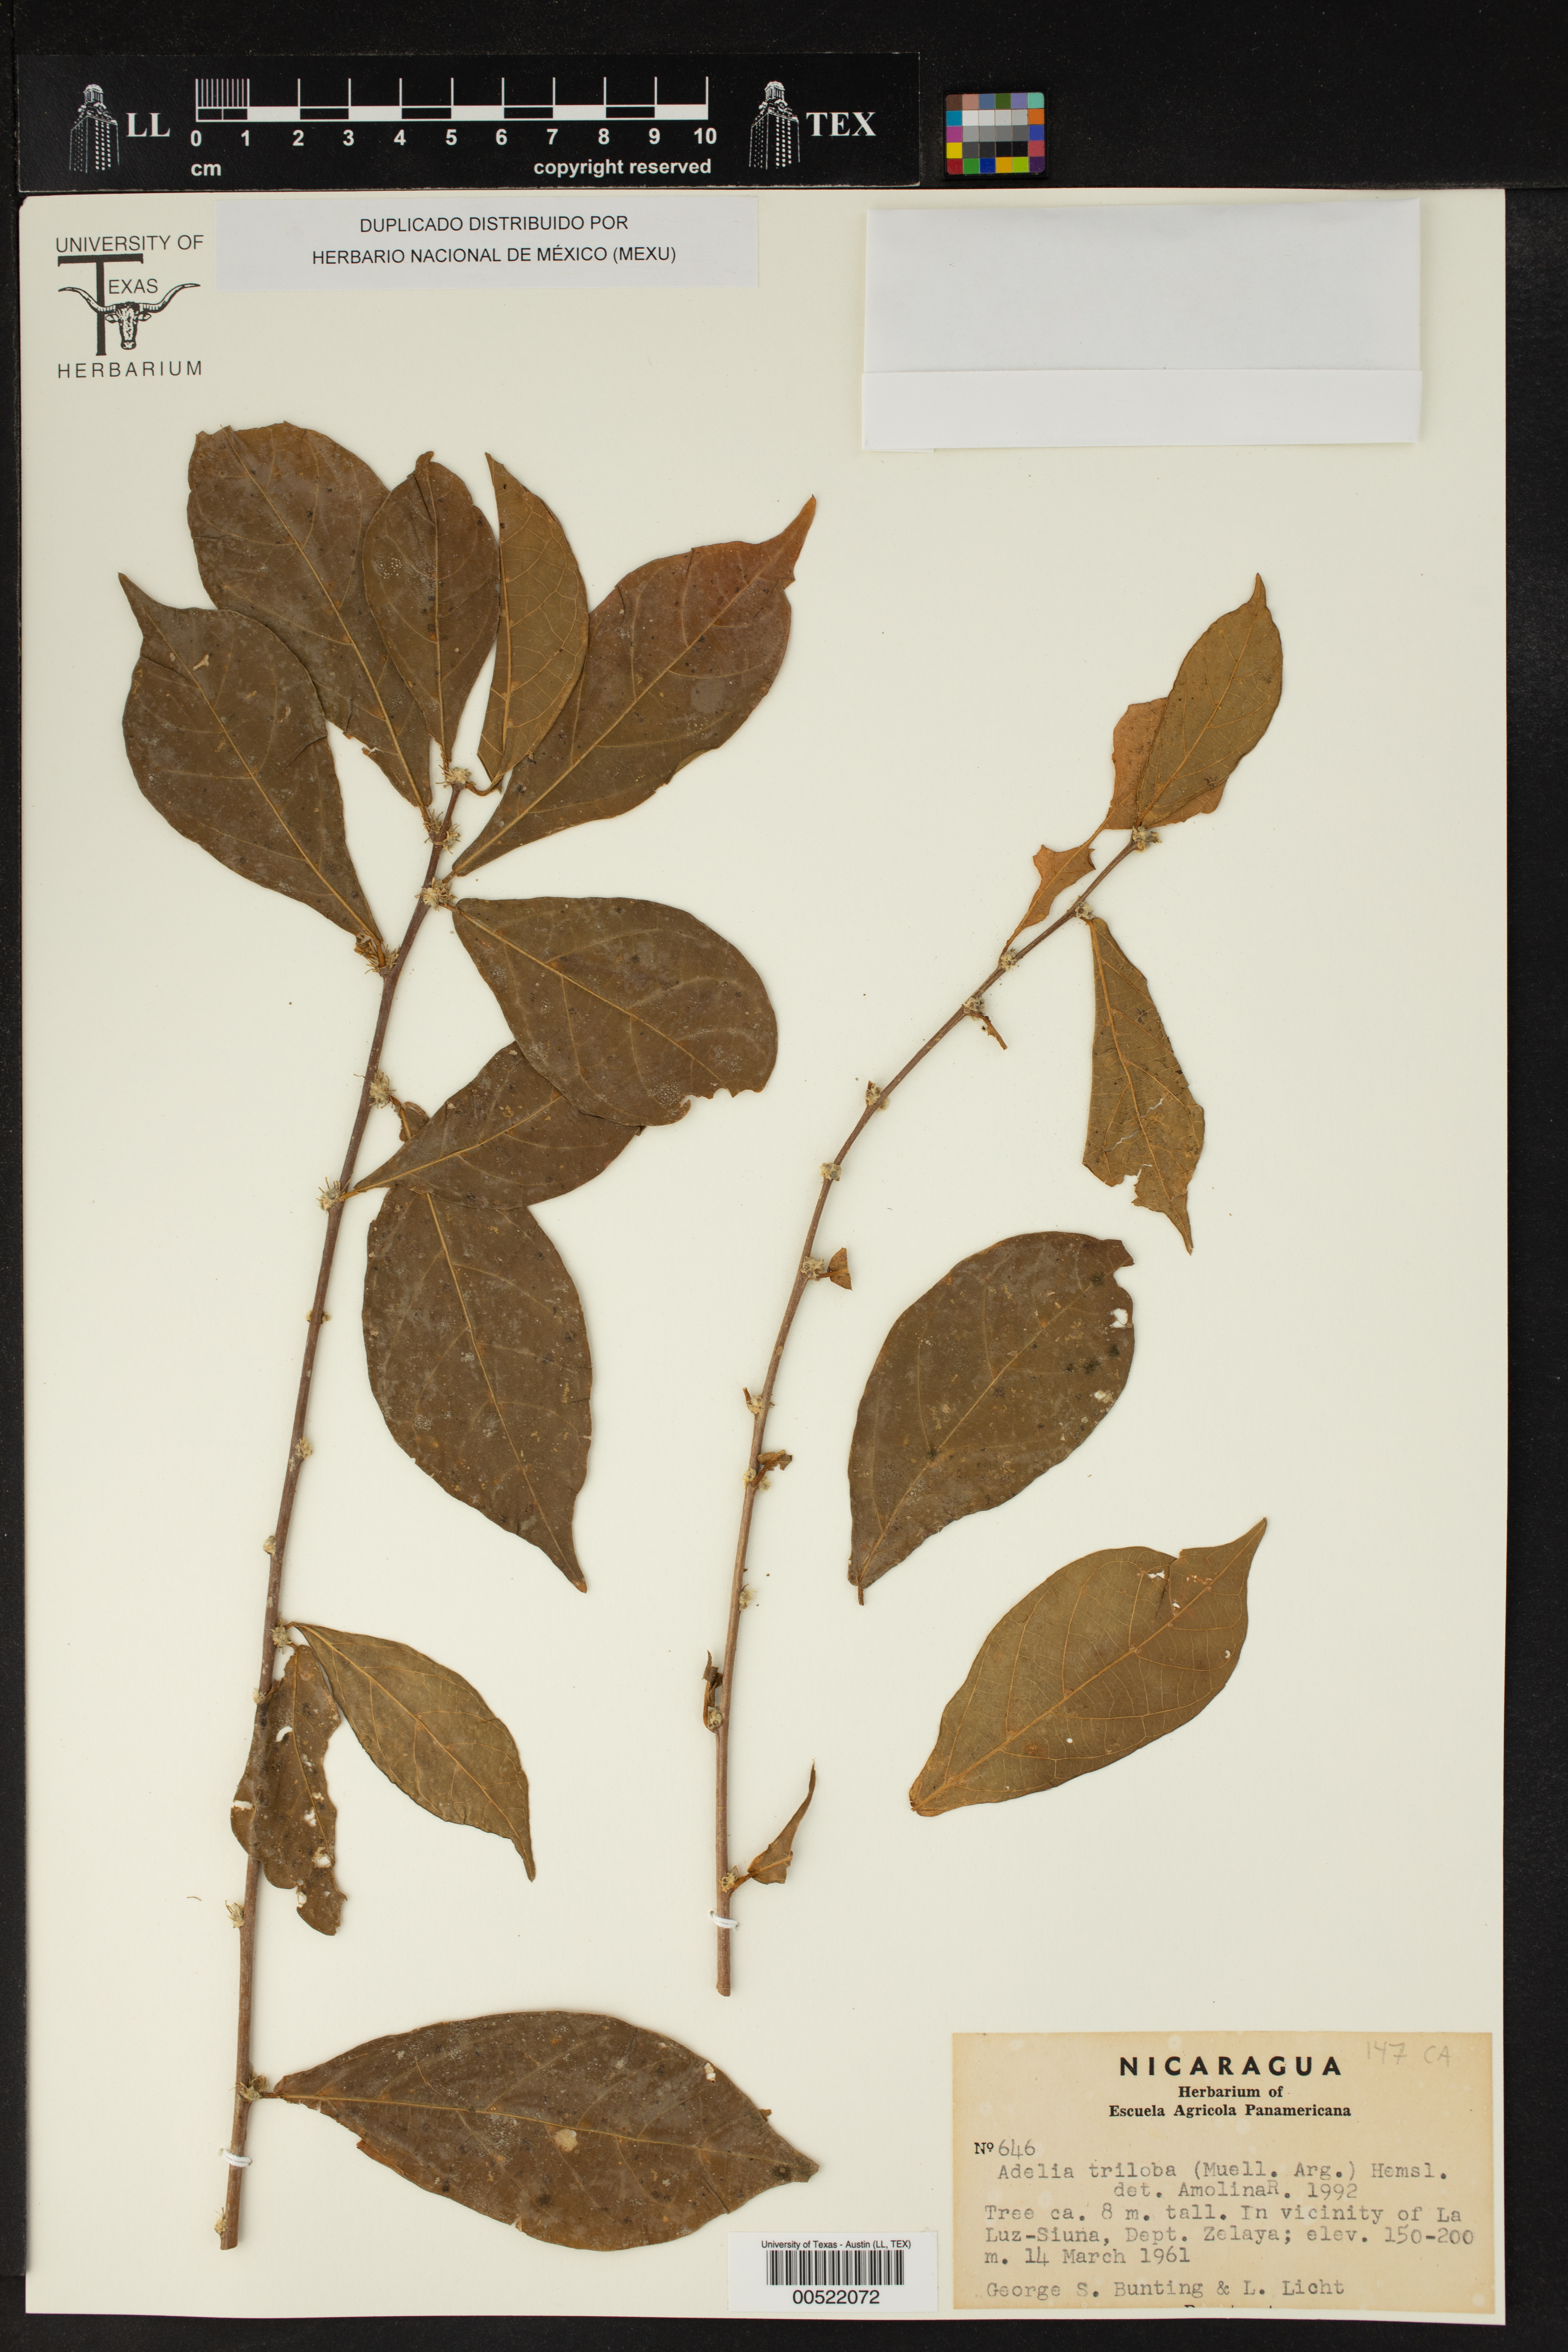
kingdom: Plantae
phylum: Tracheophyta
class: Magnoliopsida
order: Malpighiales
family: Euphorbiaceae
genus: Adelia
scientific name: Adelia triloba
